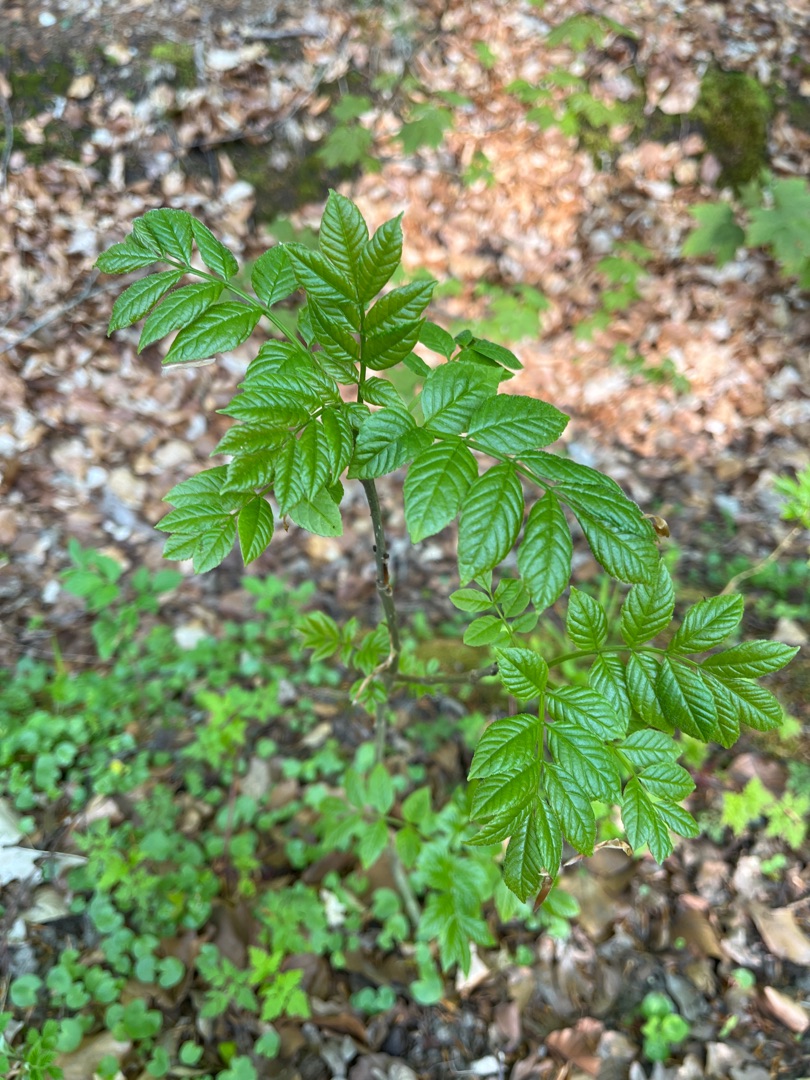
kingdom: Plantae
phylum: Tracheophyta
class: Magnoliopsida
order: Lamiales
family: Oleaceae
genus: Fraxinus
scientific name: Fraxinus excelsior
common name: Ask
